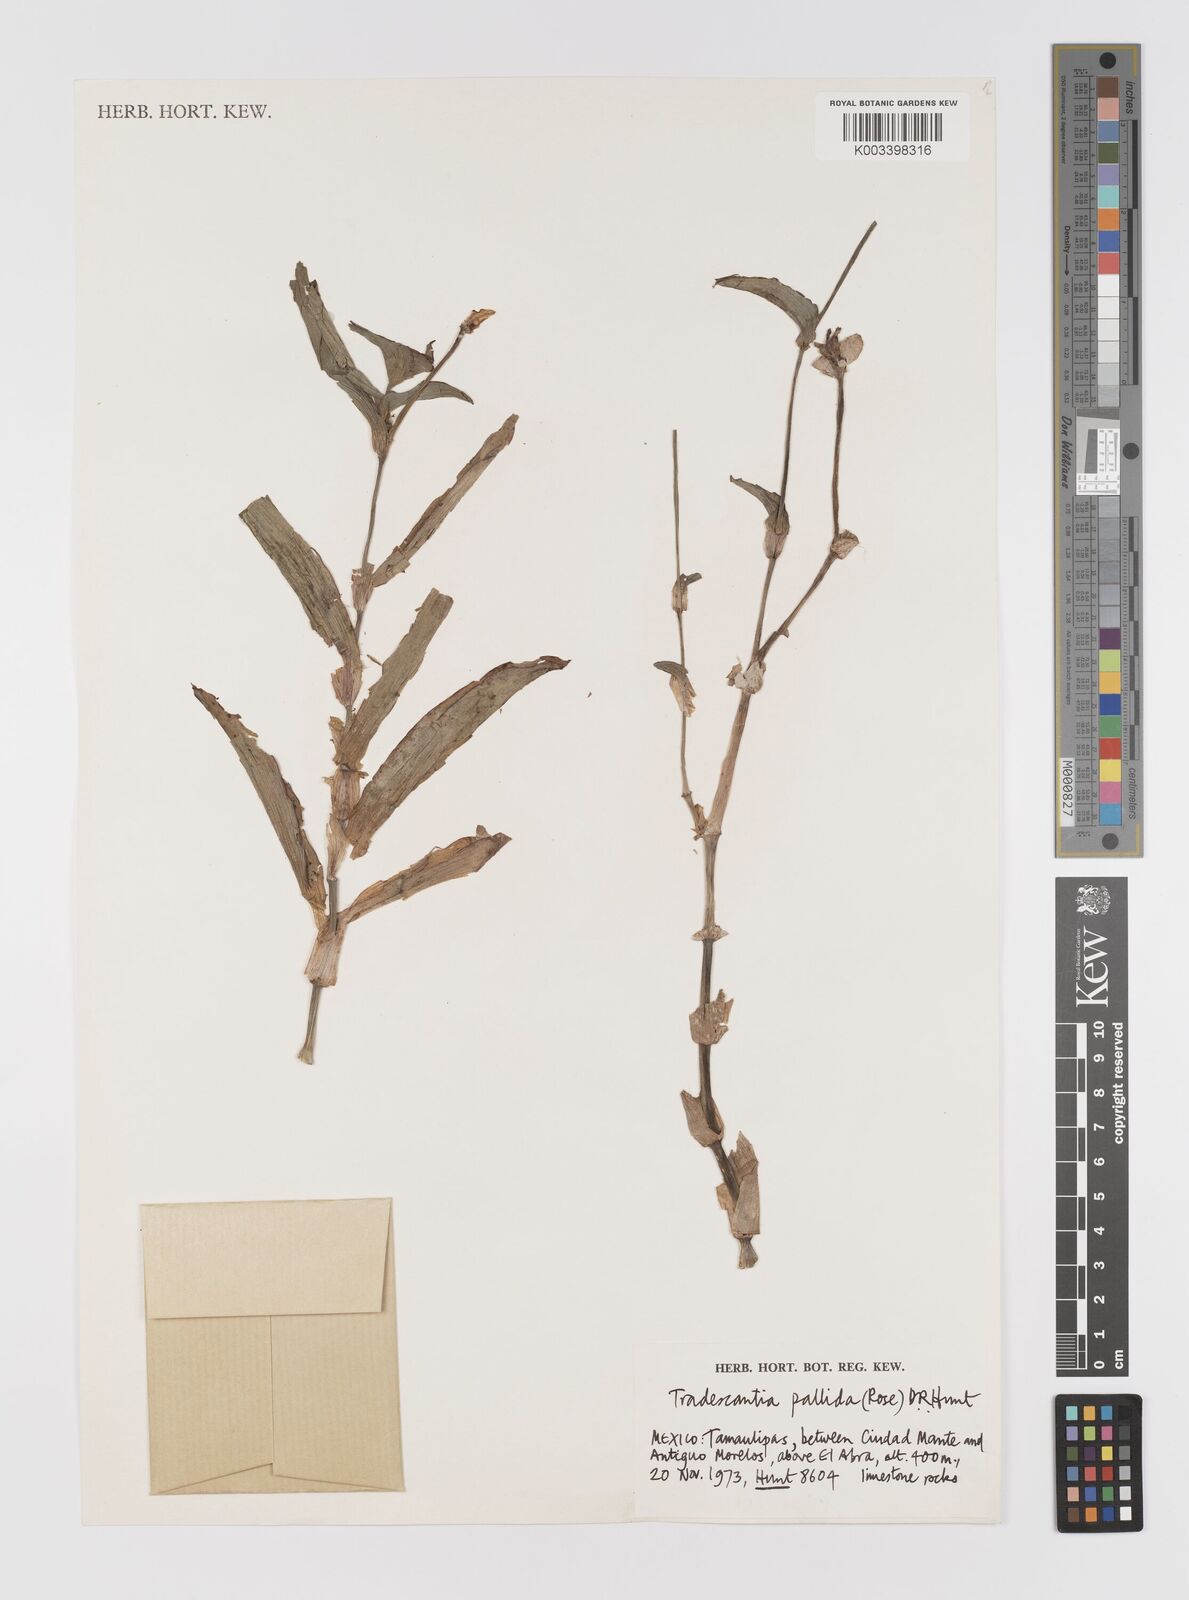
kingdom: Plantae
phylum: Tracheophyta
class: Liliopsida
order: Commelinales
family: Commelinaceae
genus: Tradescantia
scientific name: Tradescantia pallida
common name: Purpleheart
